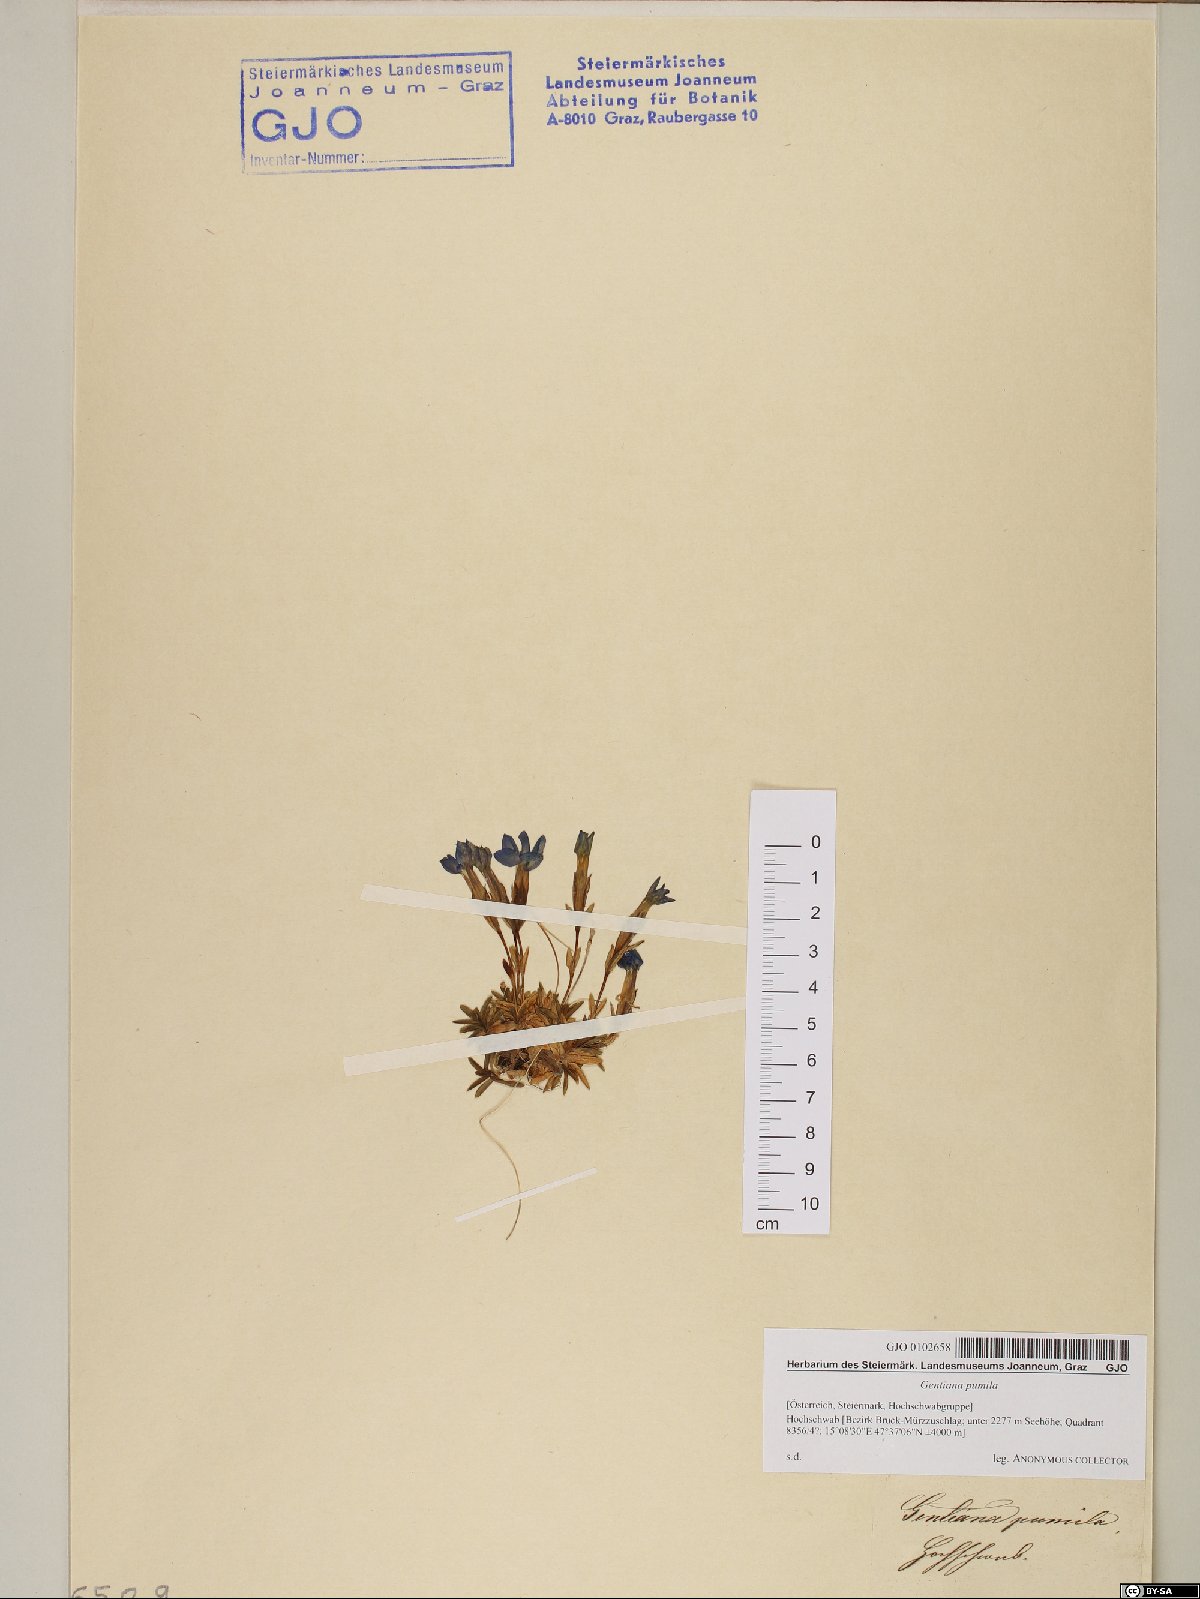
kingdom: Plantae
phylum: Tracheophyta
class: Magnoliopsida
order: Gentianales
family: Gentianaceae
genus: Gentiana
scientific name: Gentiana pumila
